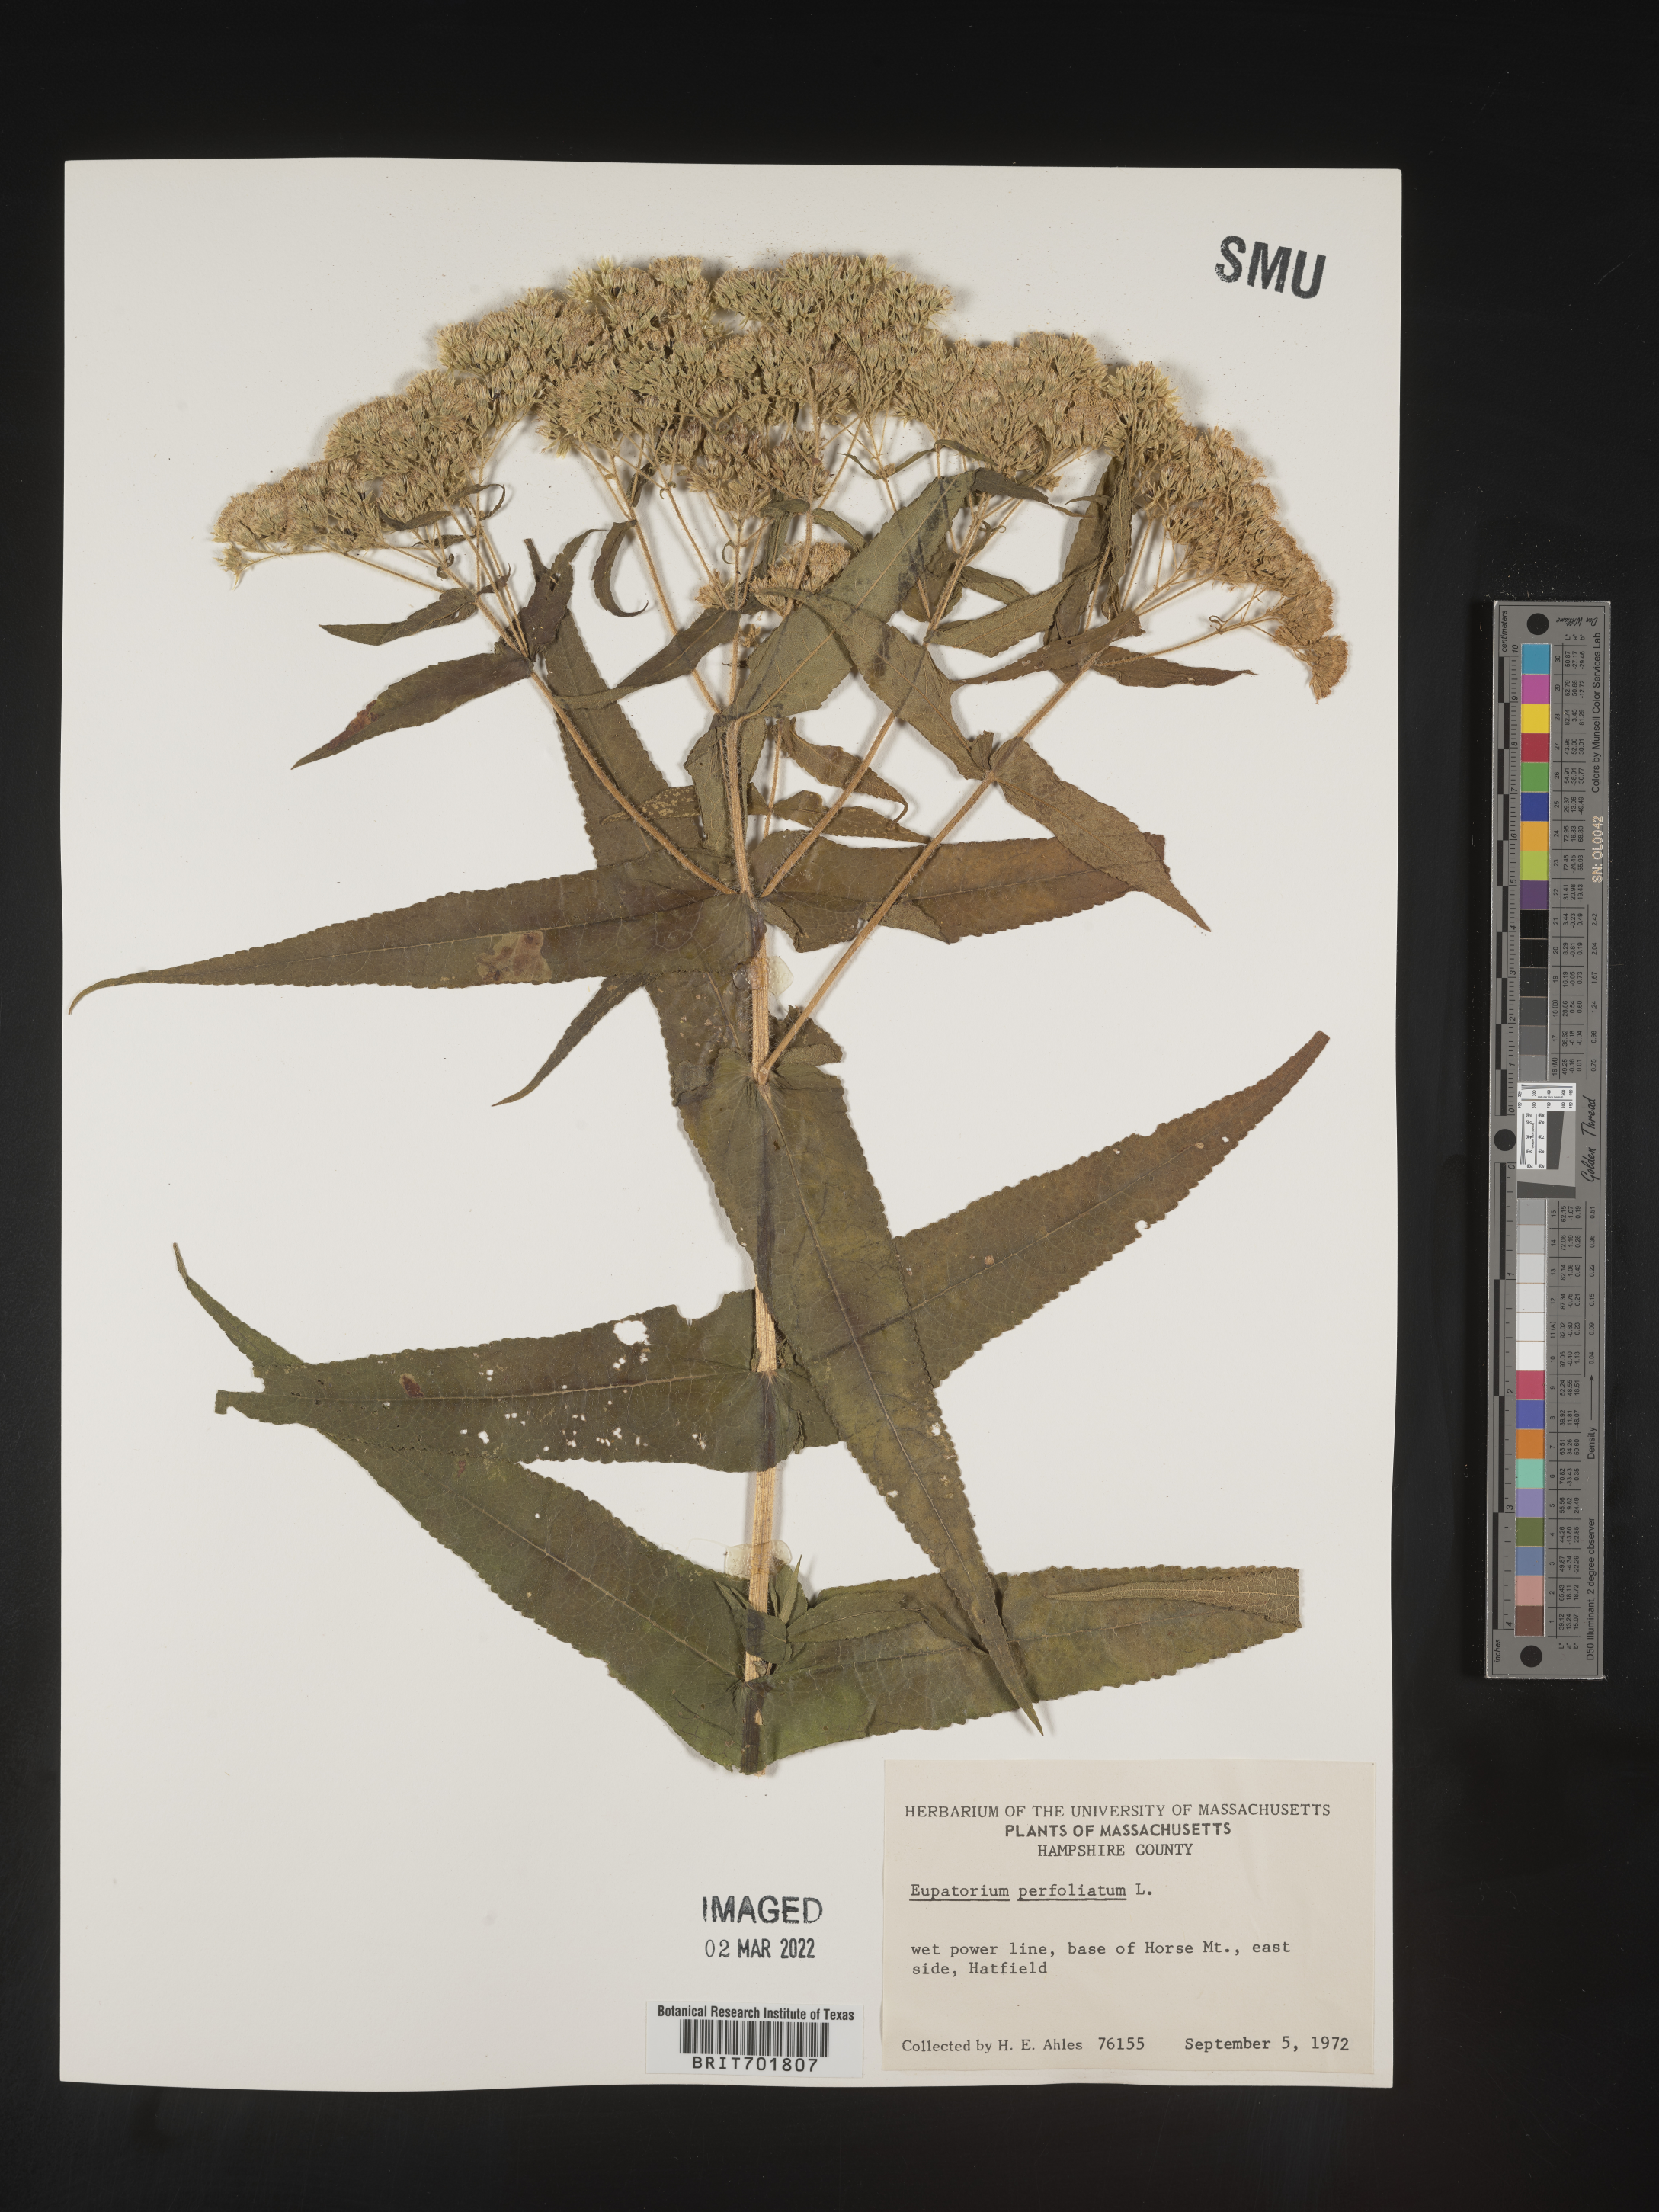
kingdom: Plantae
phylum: Tracheophyta
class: Magnoliopsida
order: Asterales
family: Asteraceae
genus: Eupatorium
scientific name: Eupatorium perfoliatum
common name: Boneset
